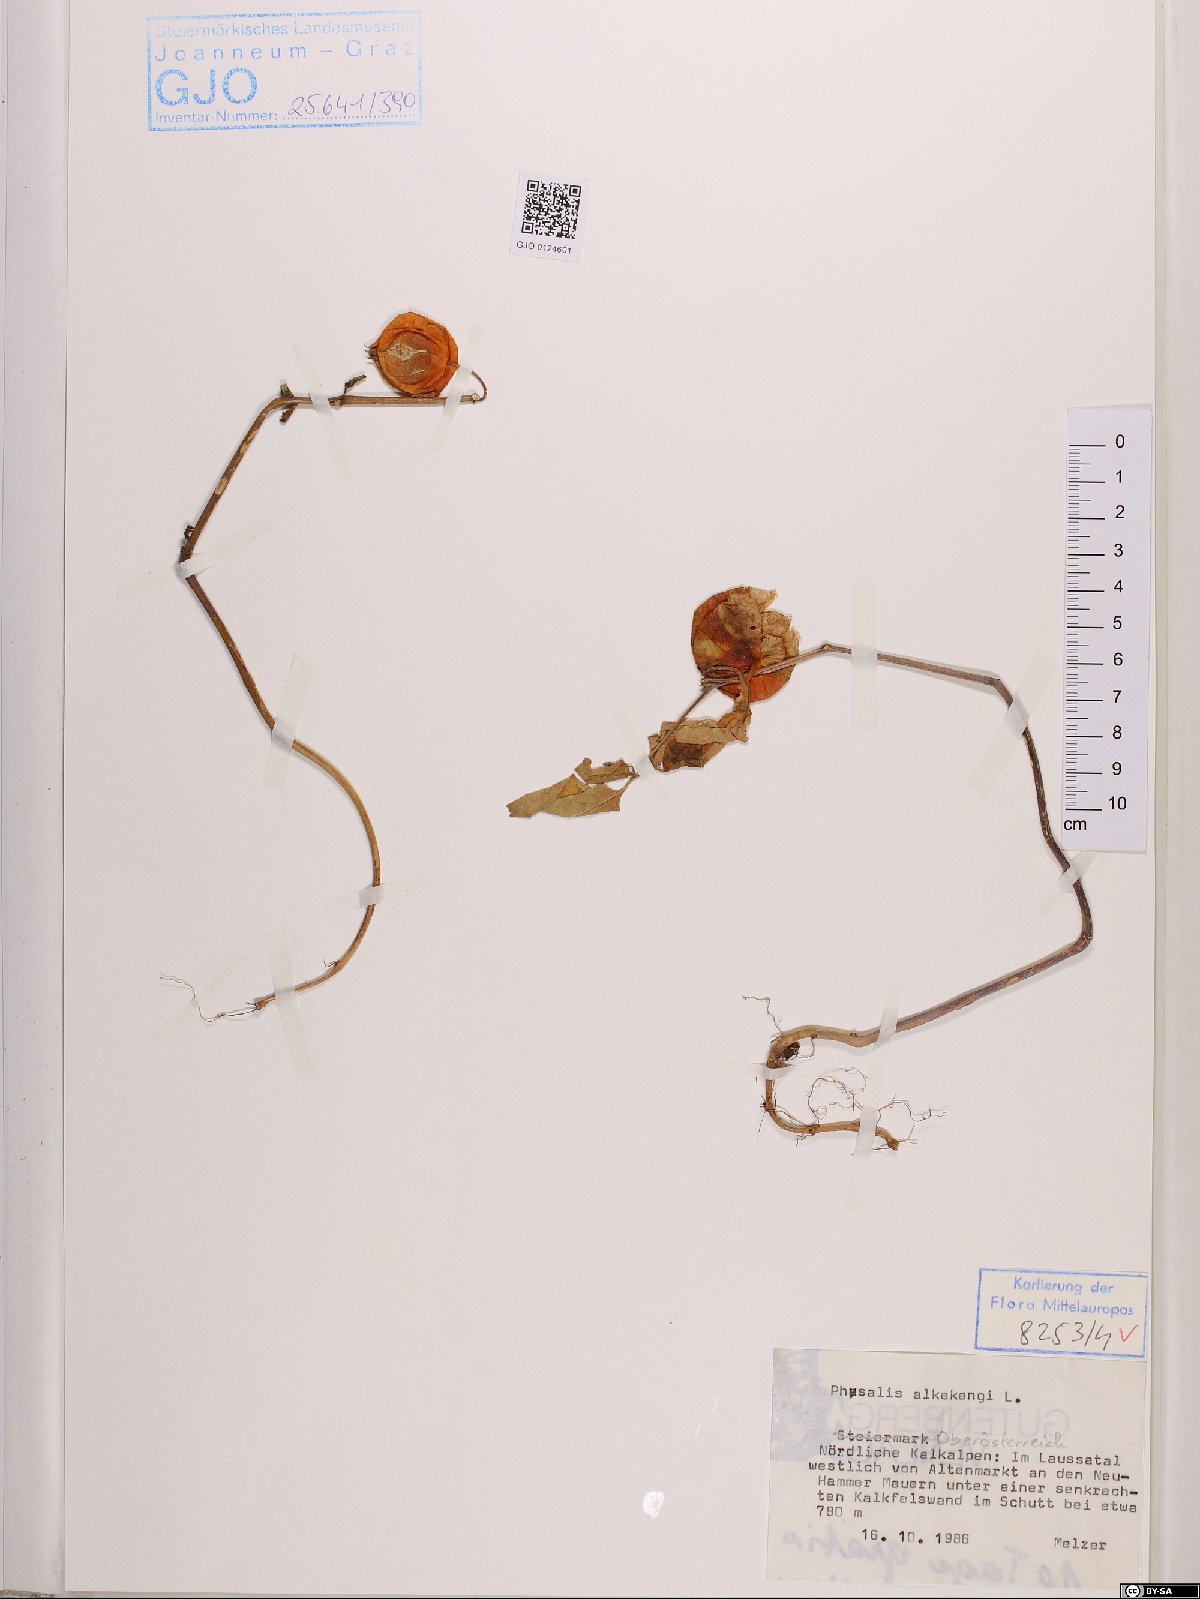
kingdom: Plantae
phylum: Tracheophyta
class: Magnoliopsida
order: Solanales
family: Solanaceae
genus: Alkekengi
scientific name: Alkekengi officinarum
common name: Japanese-lantern
